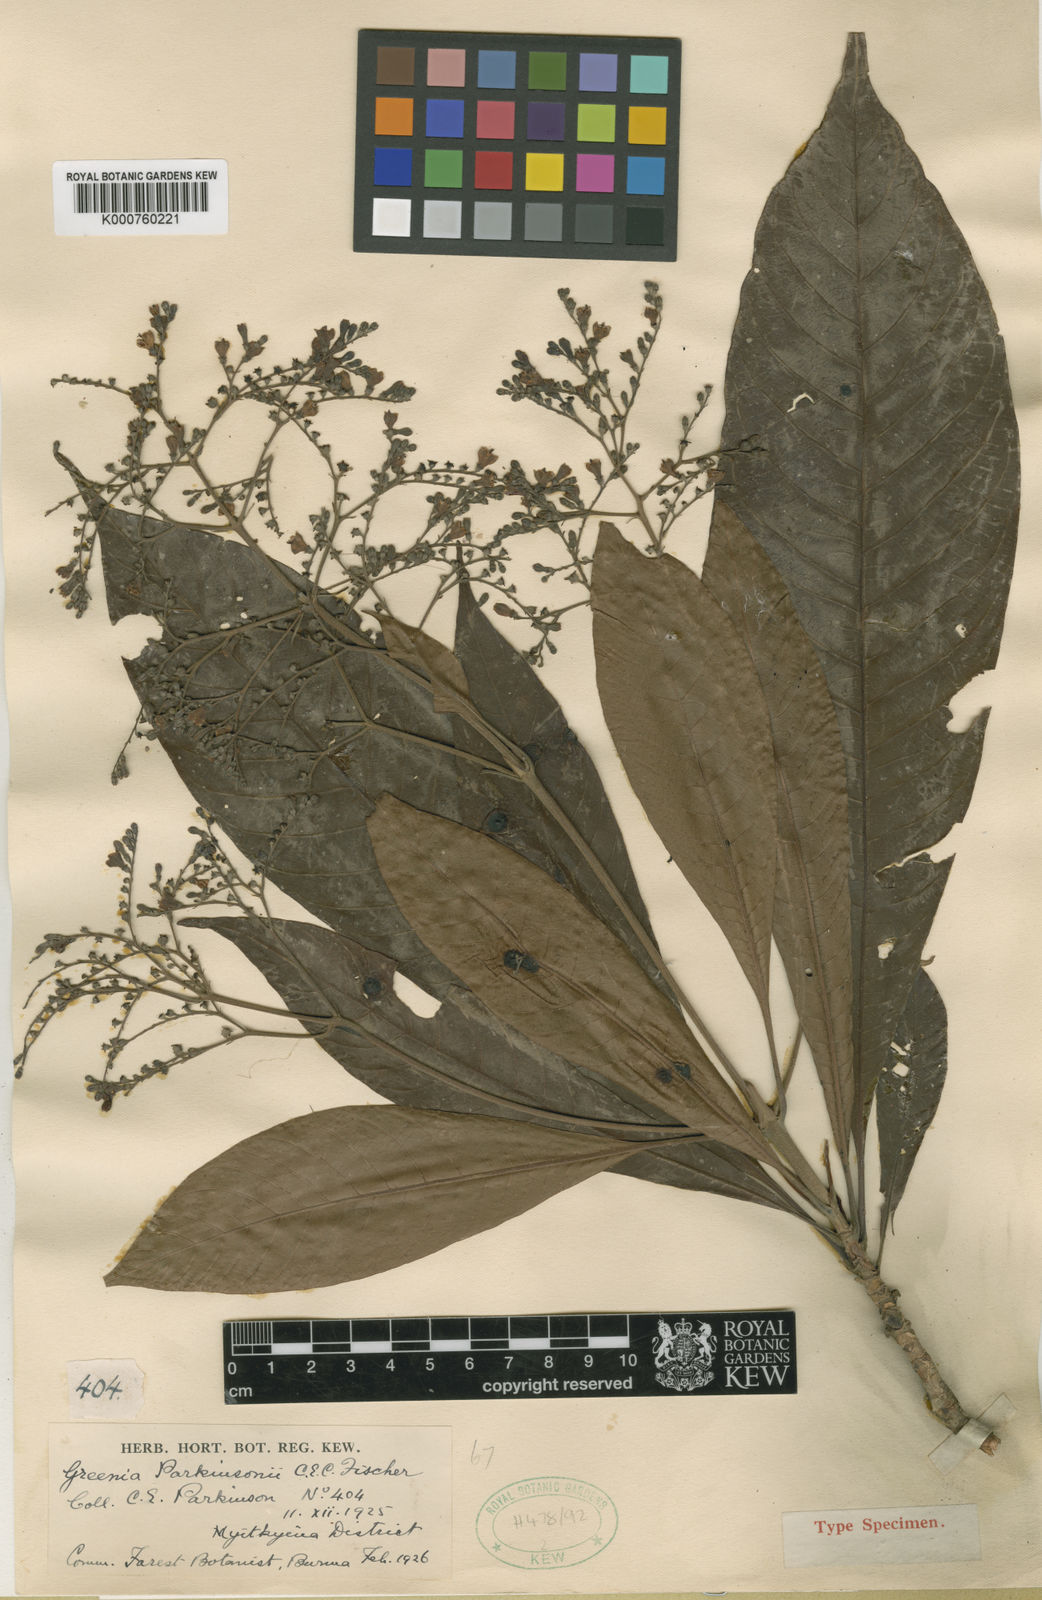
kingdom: Plantae
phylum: Tracheophyta
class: Magnoliopsida
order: Gentianales
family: Rubiaceae
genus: Greenea
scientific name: Greenea parkinsonii
